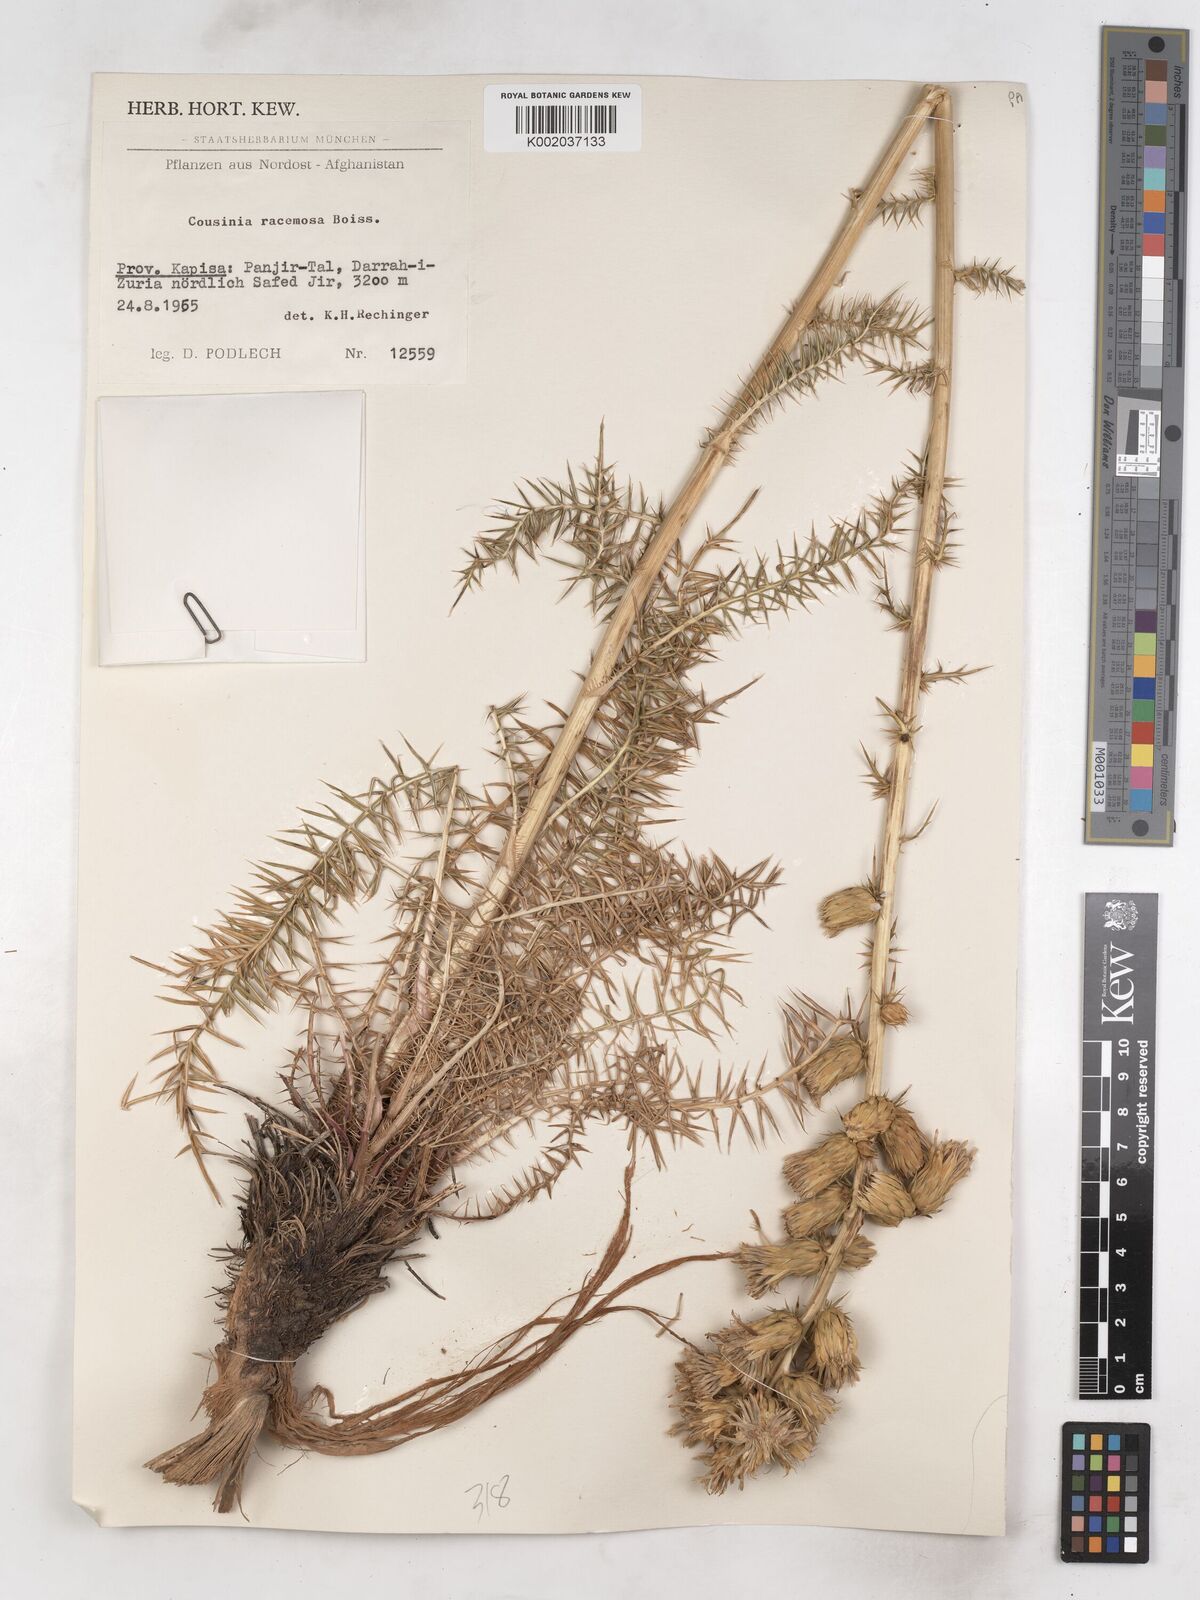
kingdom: Plantae
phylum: Tracheophyta
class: Magnoliopsida
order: Asterales
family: Asteraceae
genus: Cousinia
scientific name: Cousinia racemosa
